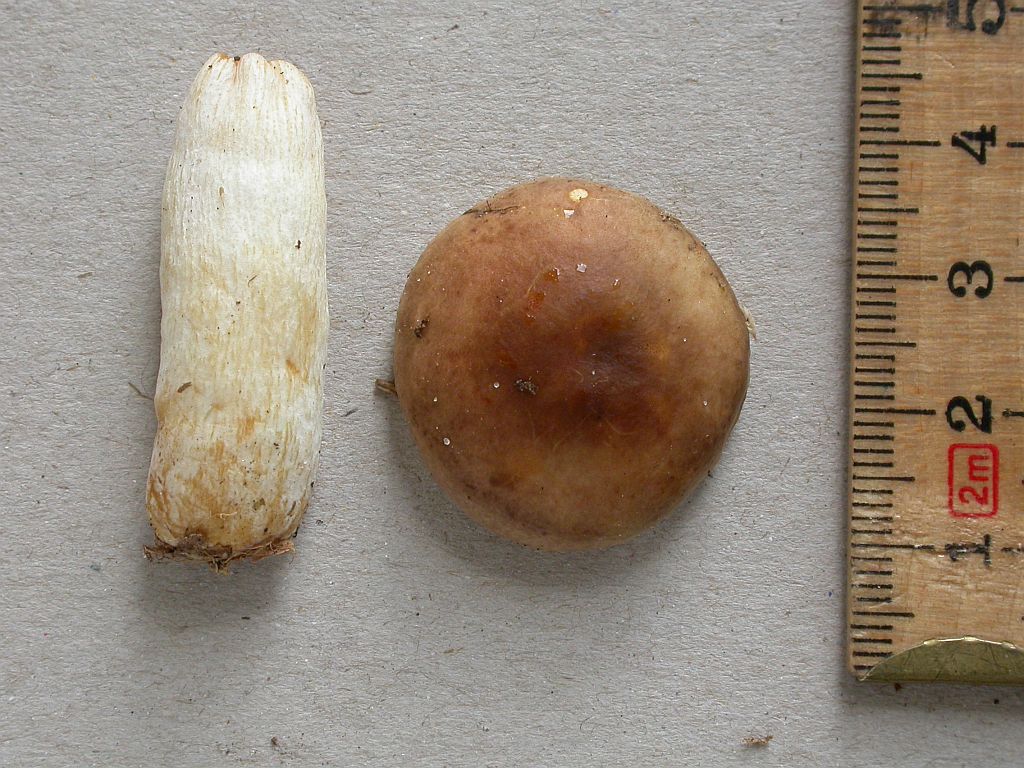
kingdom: Fungi
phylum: Basidiomycota
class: Agaricomycetes
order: Russulales
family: Russulaceae
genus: Russula
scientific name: Russula puellaris
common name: gulstokket skørhat
